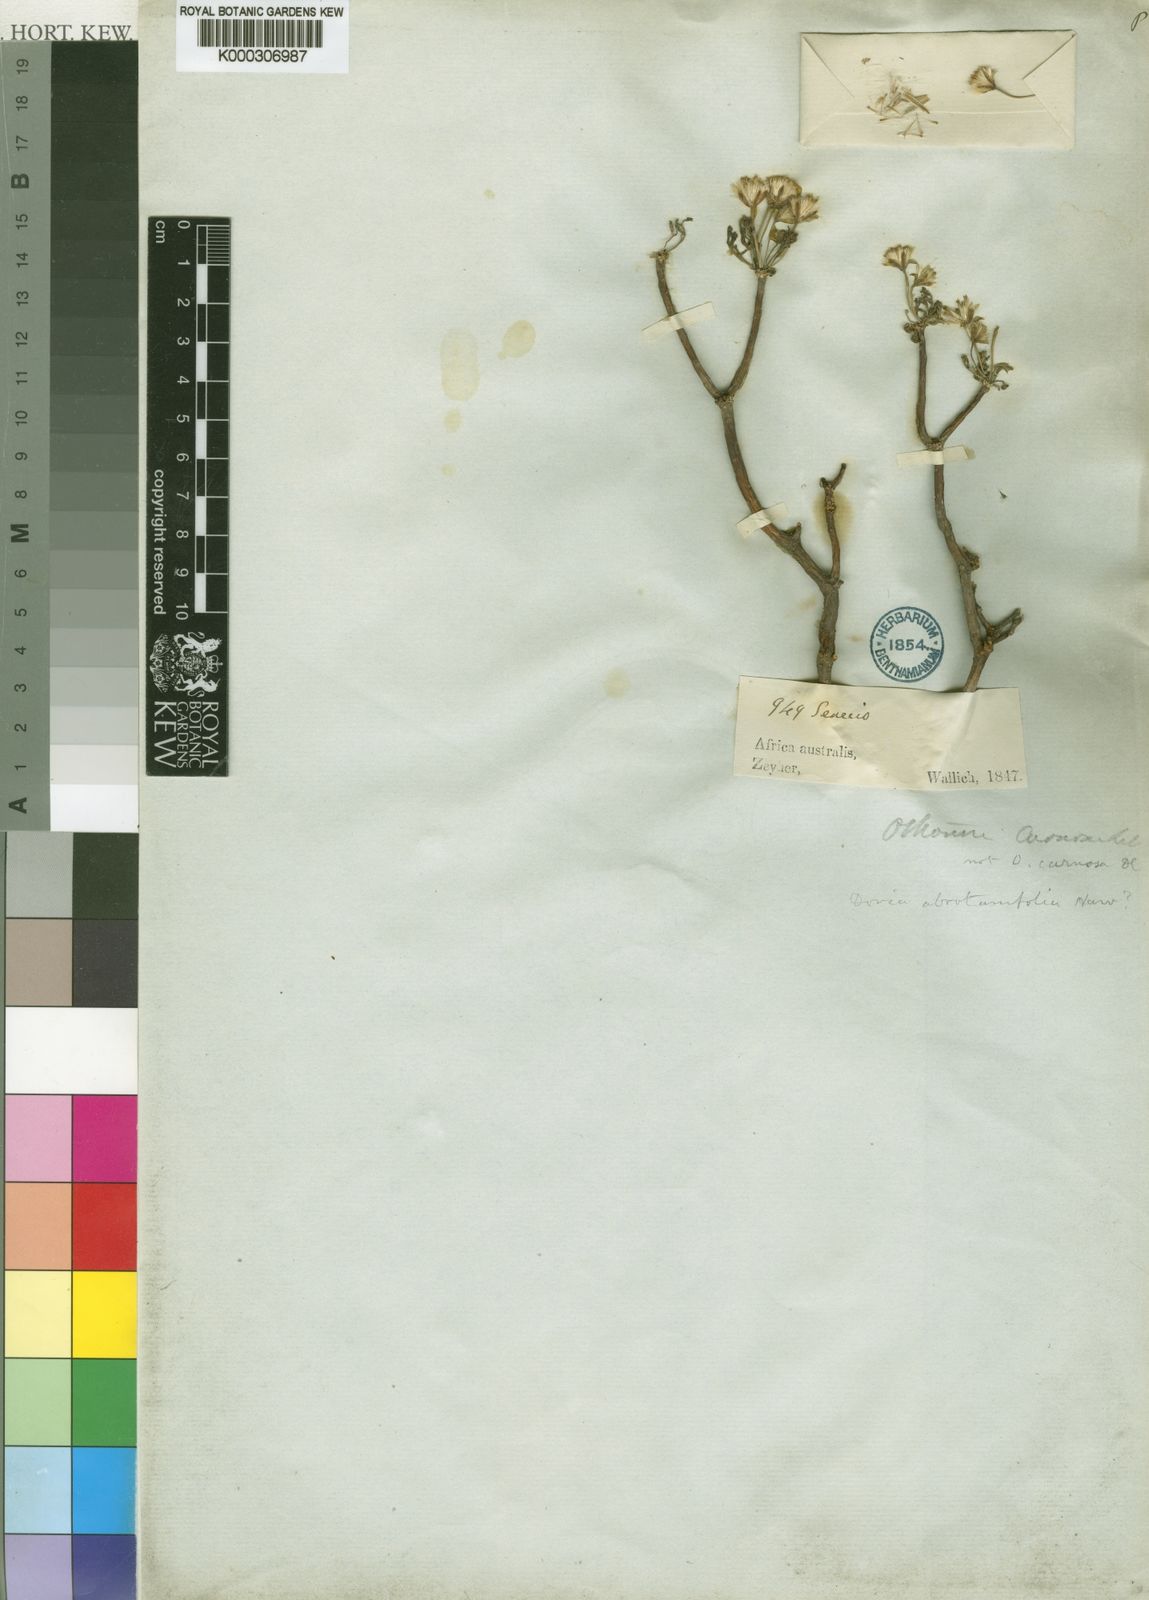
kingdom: Plantae
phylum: Tracheophyta
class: Magnoliopsida
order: Asterales
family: Asteraceae
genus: Euryops
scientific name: Euryops abrotanifolius
